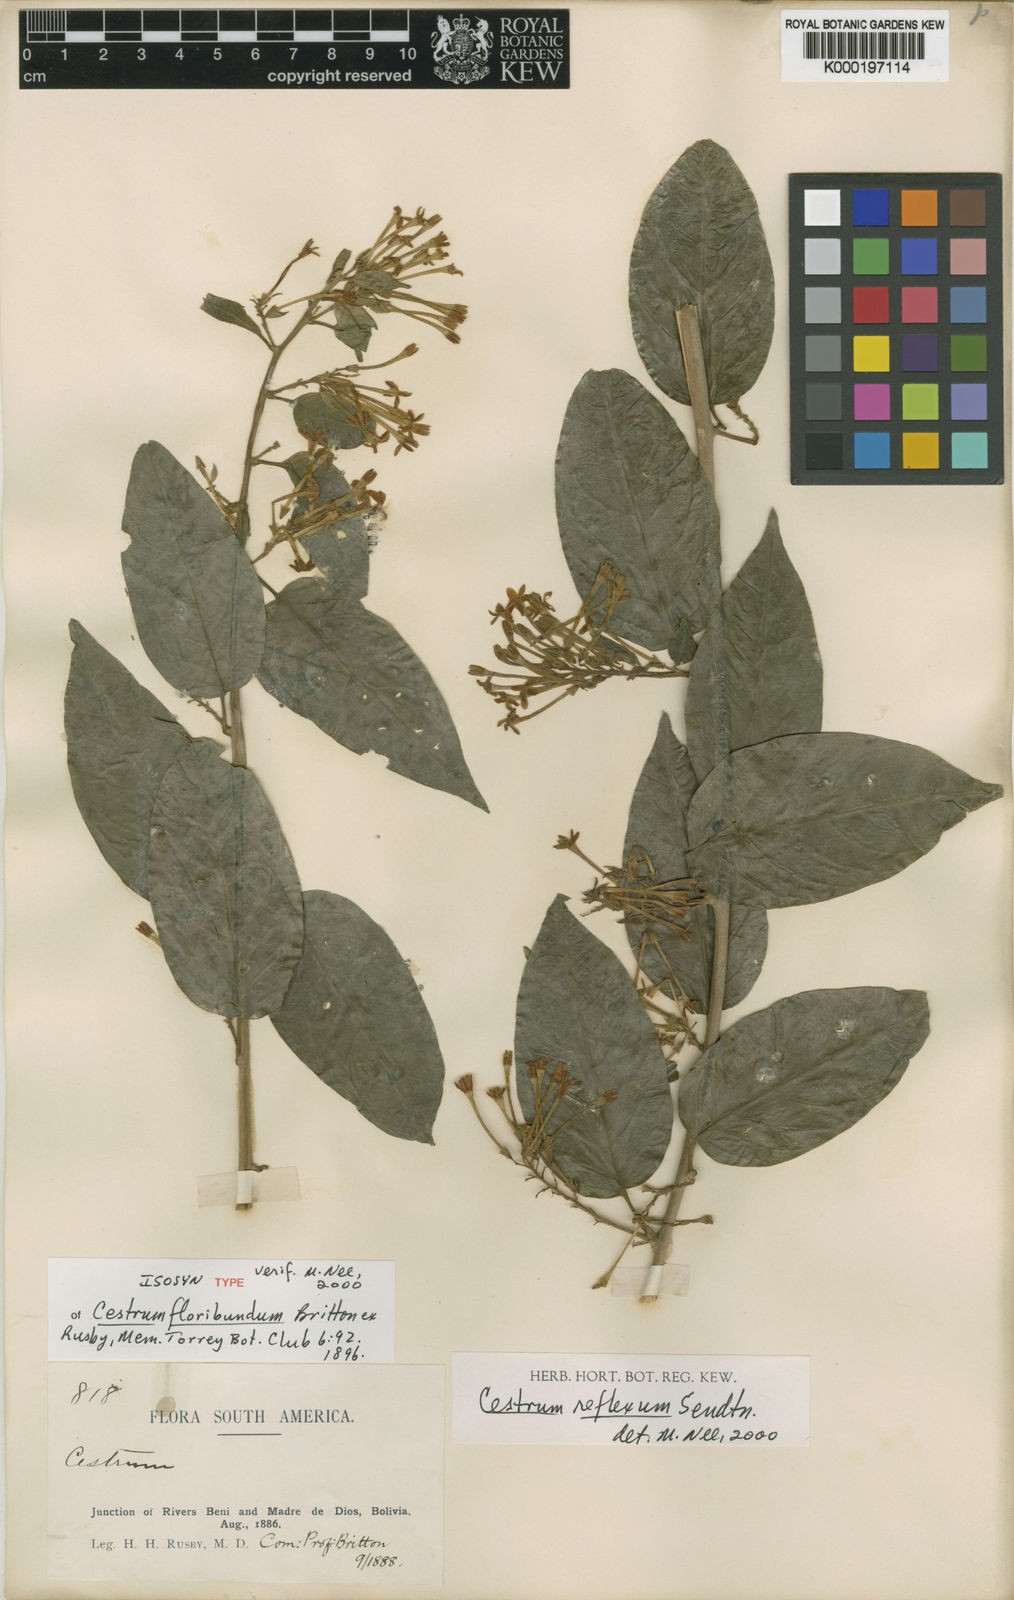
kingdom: Plantae
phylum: Tracheophyta
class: Magnoliopsida
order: Solanales
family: Solanaceae
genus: Cestrum
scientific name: Cestrum reflexum
